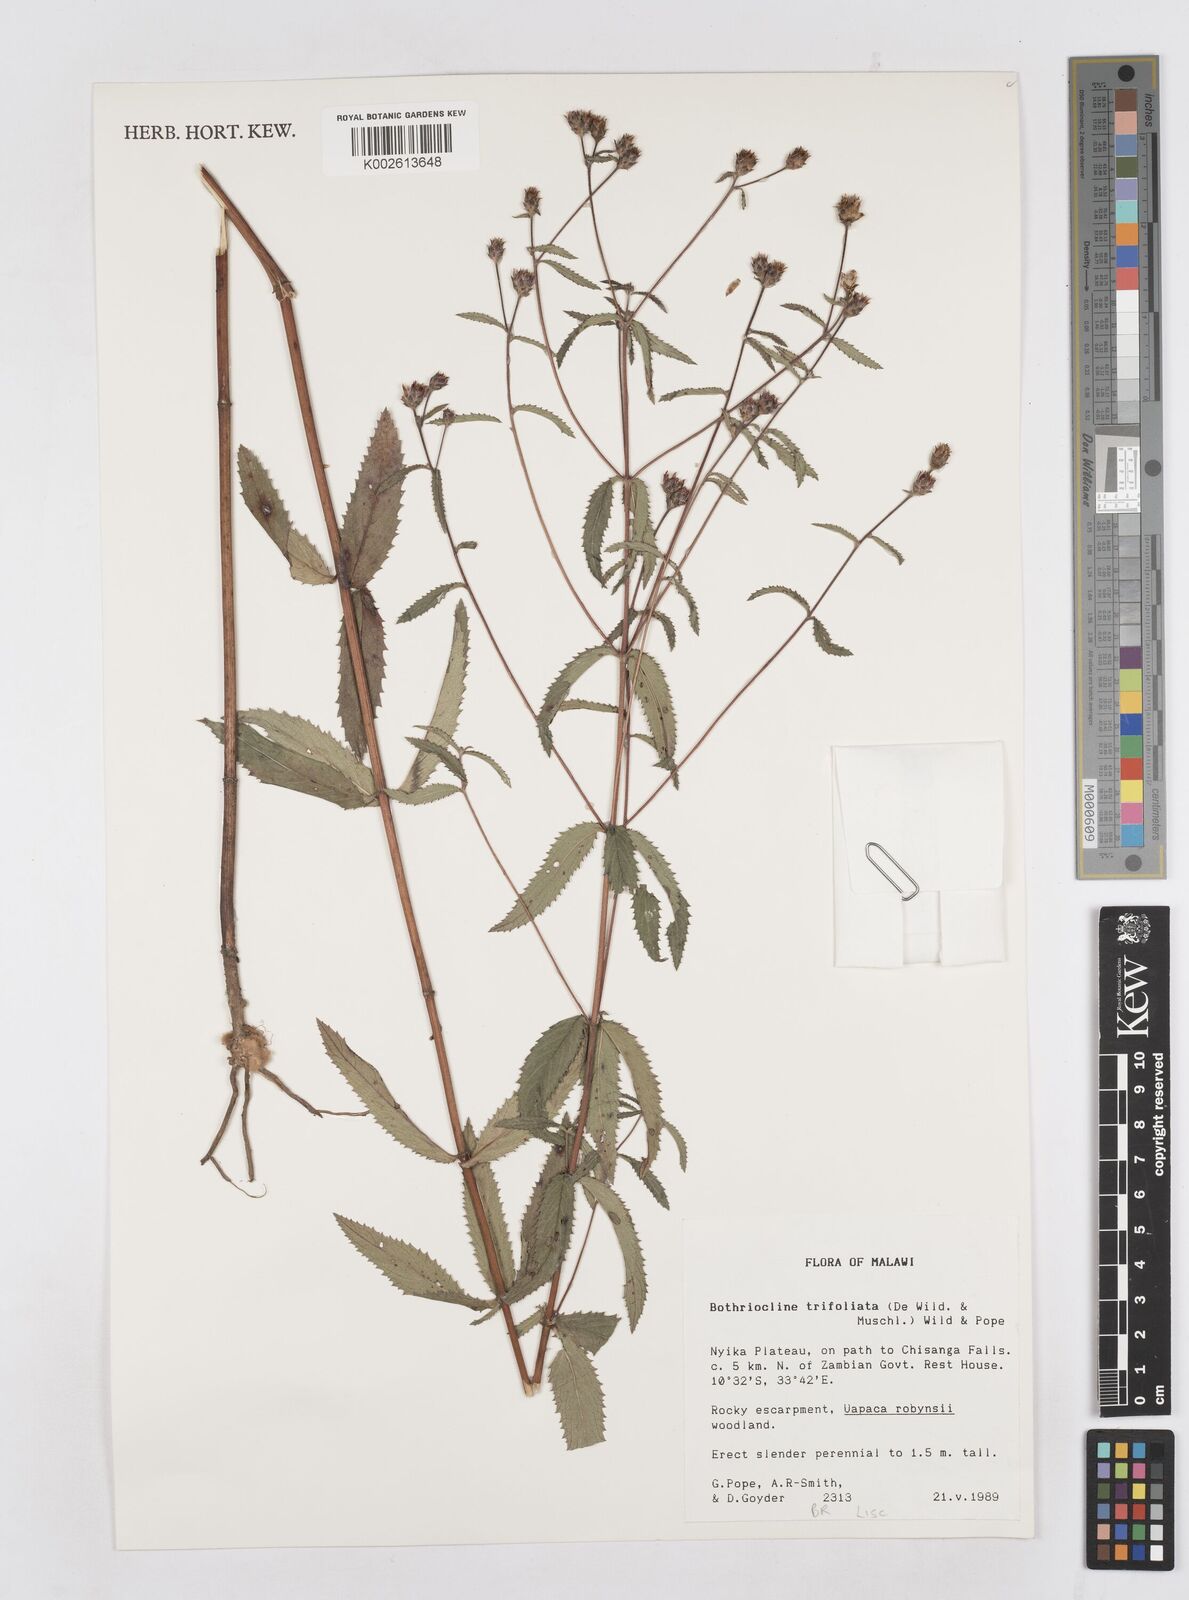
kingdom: Plantae
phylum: Tracheophyta
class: Magnoliopsida
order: Asterales
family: Asteraceae
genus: Bothriocline
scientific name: Bothriocline trifoliata
